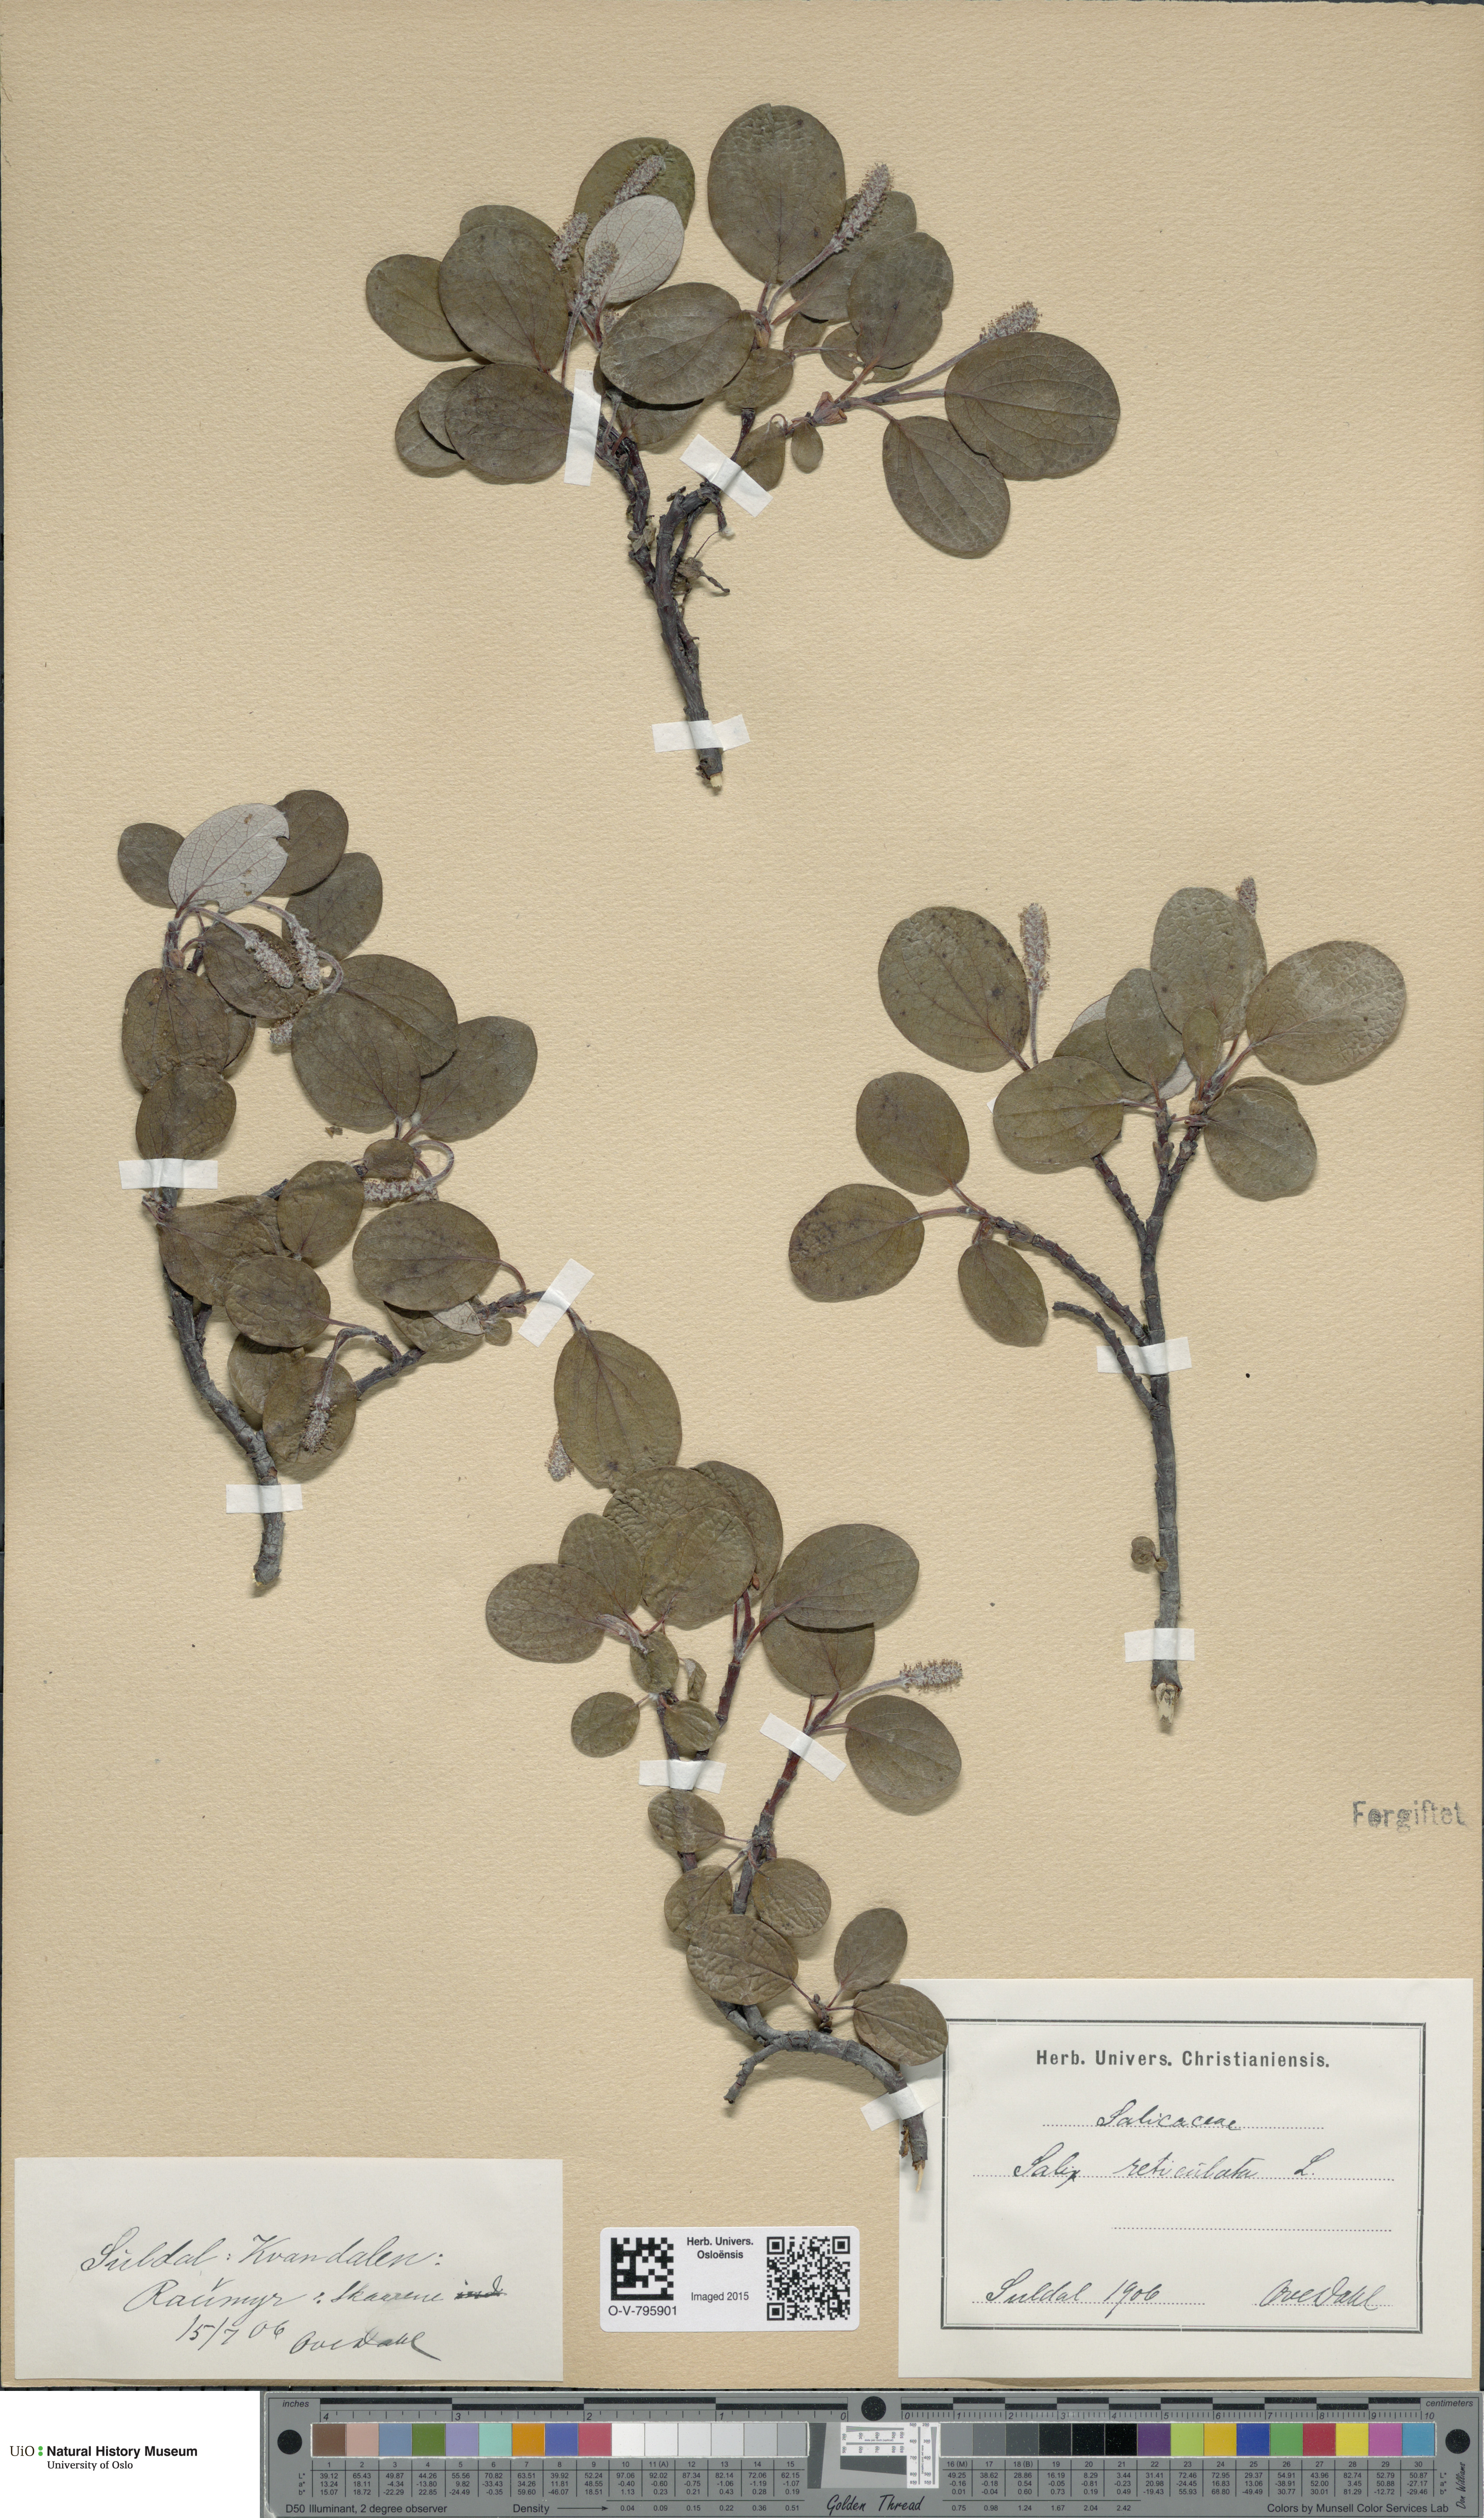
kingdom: Plantae
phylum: Tracheophyta
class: Magnoliopsida
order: Malpighiales
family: Salicaceae
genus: Salix
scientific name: Salix reticulata
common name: Net-leaved willow
